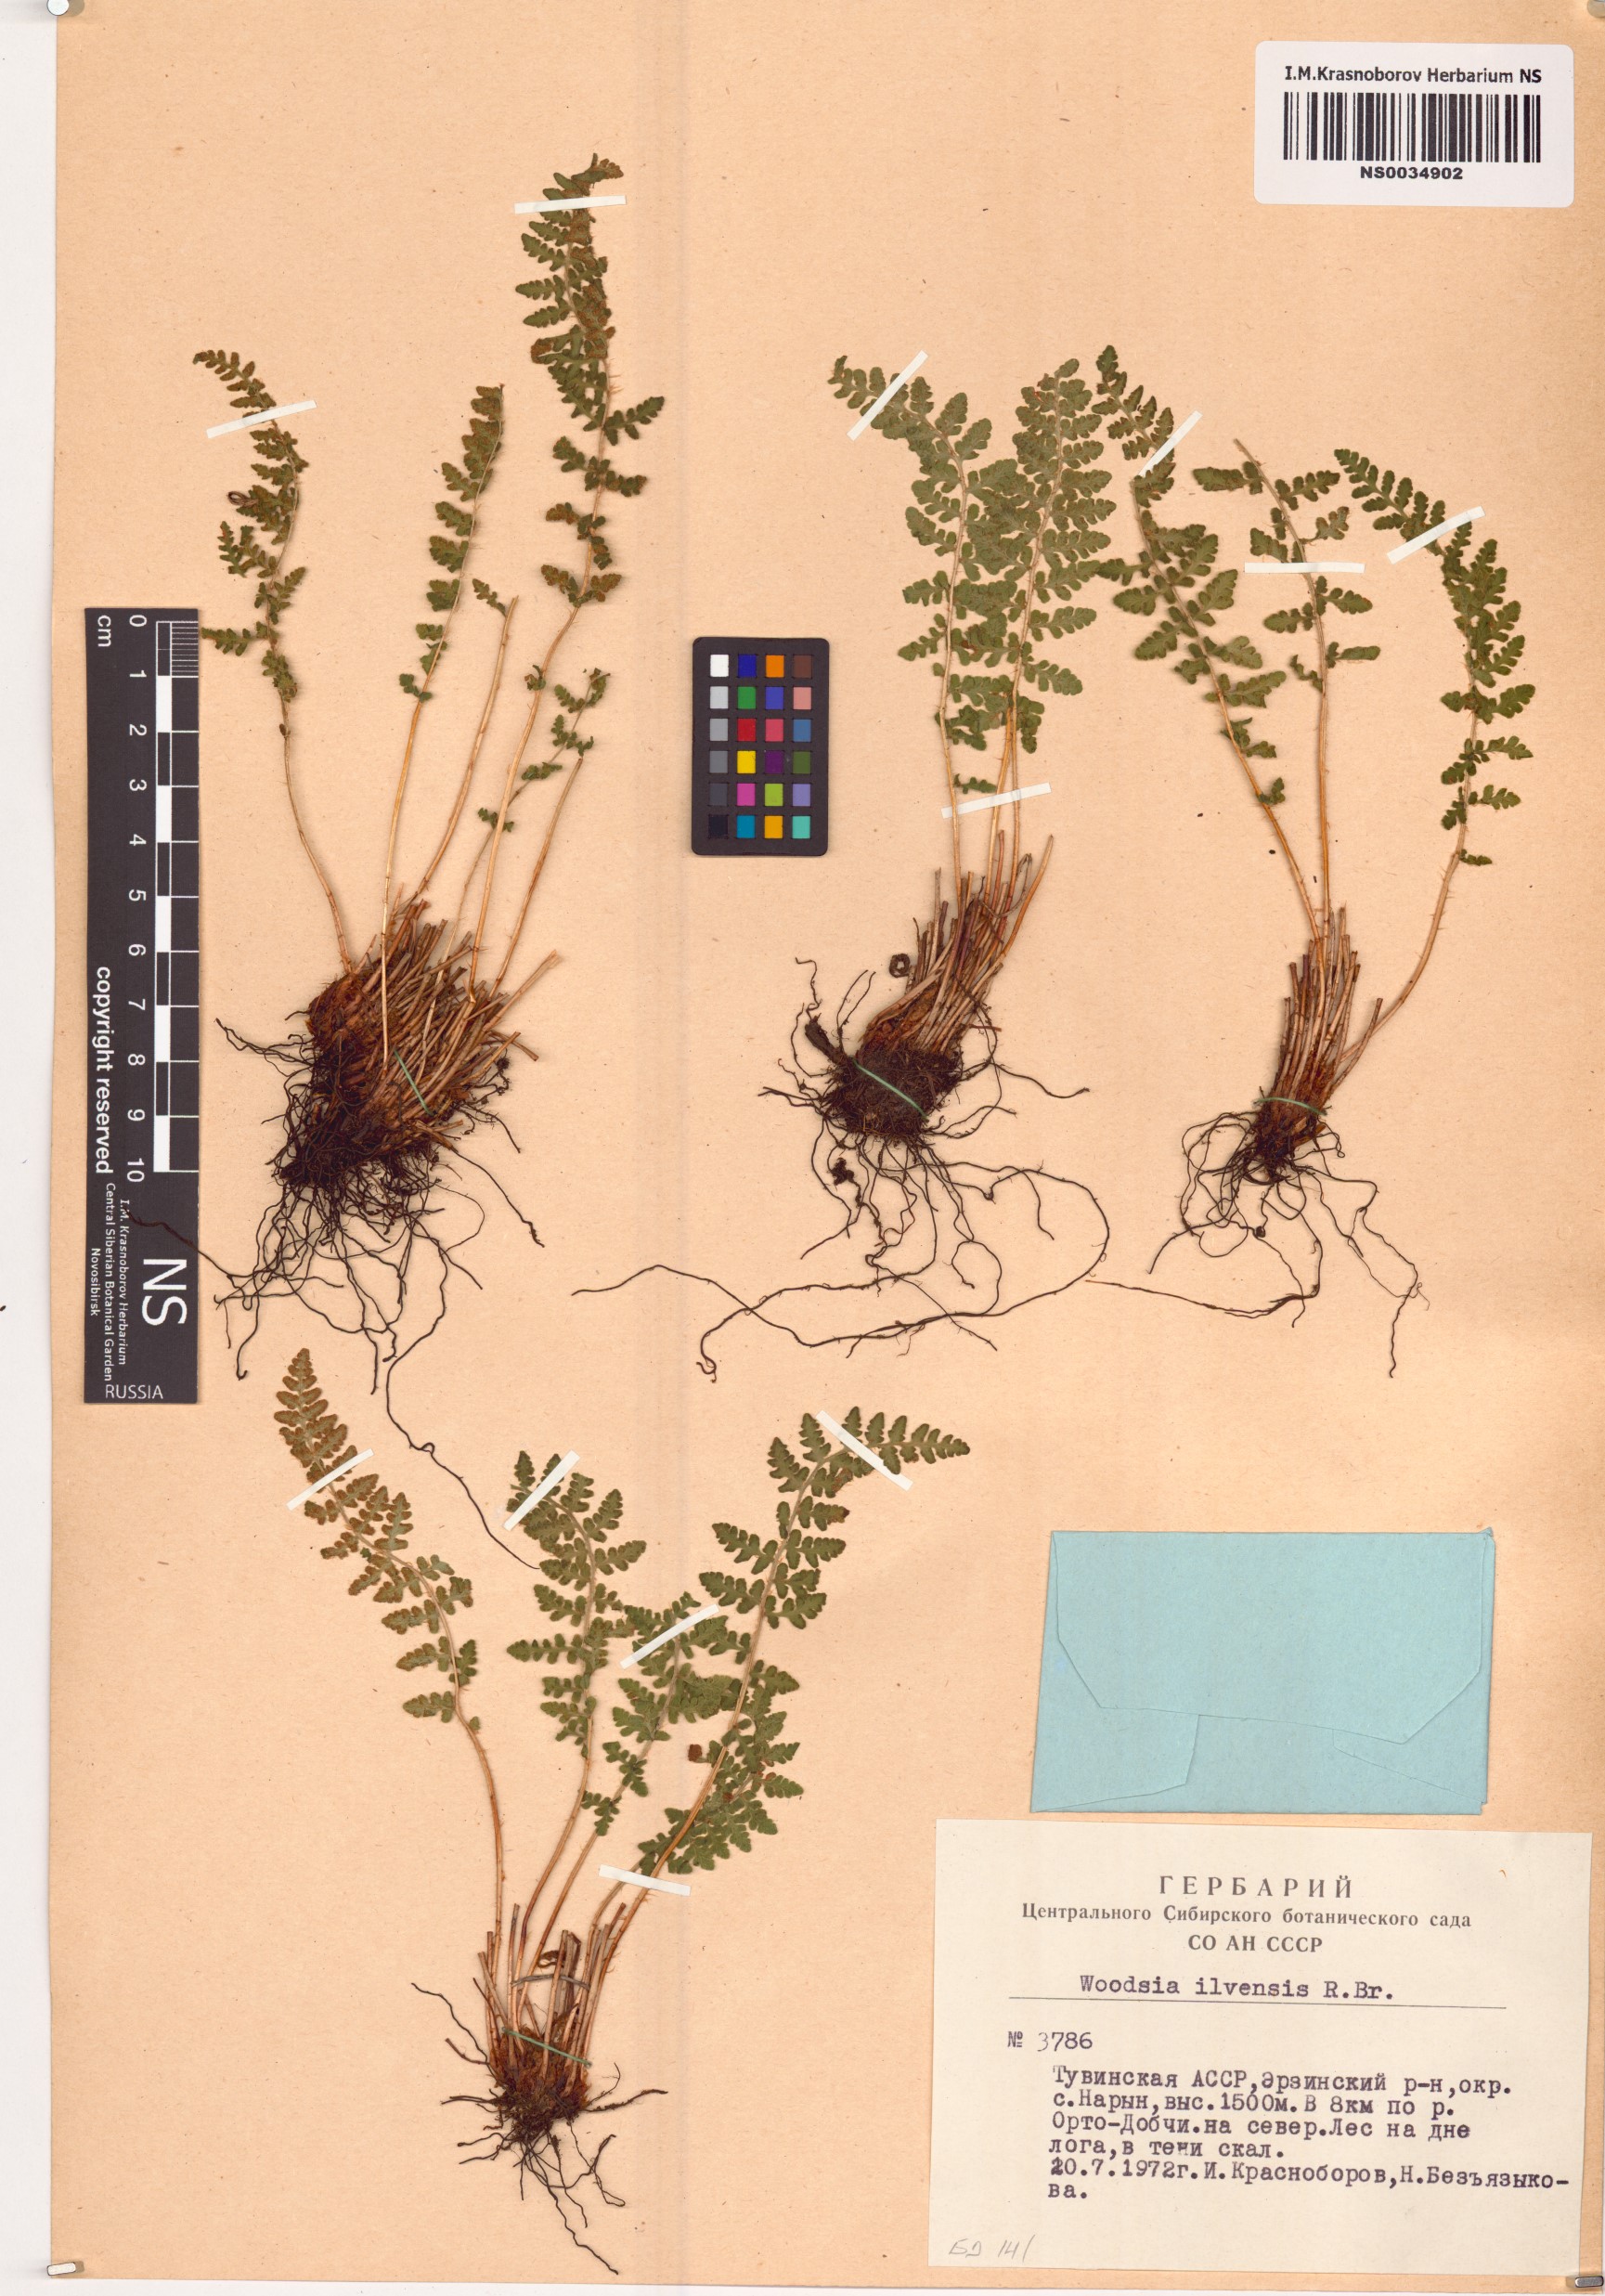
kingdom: Plantae
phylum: Tracheophyta
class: Polypodiopsida
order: Polypodiales
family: Woodsiaceae
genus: Woodsia
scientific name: Woodsia ilvensis
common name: Fragrant woodsia
